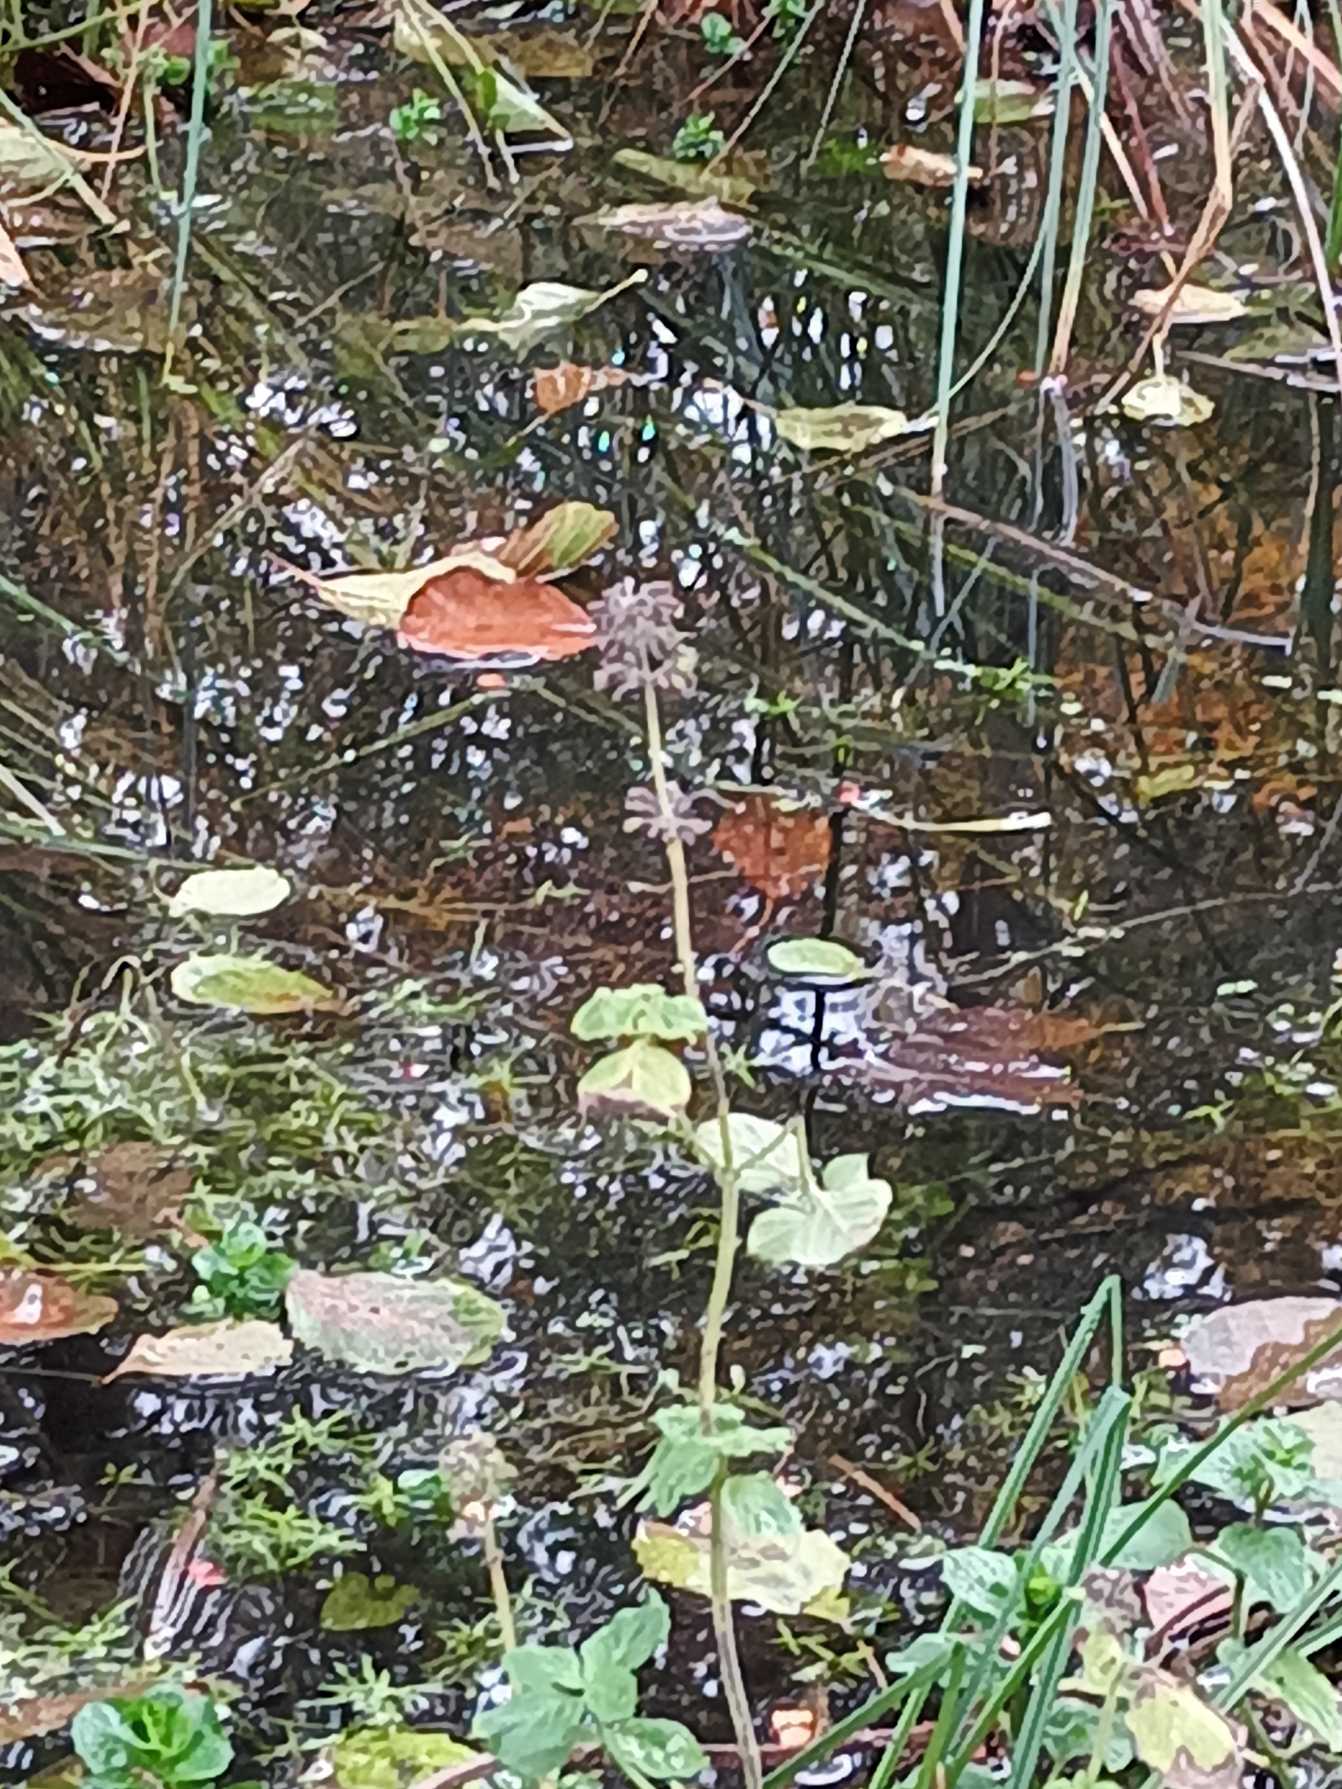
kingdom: Plantae
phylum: Tracheophyta
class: Magnoliopsida
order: Lamiales
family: Lamiaceae
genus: Mentha
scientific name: Mentha aquatica
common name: Vand-mynte
